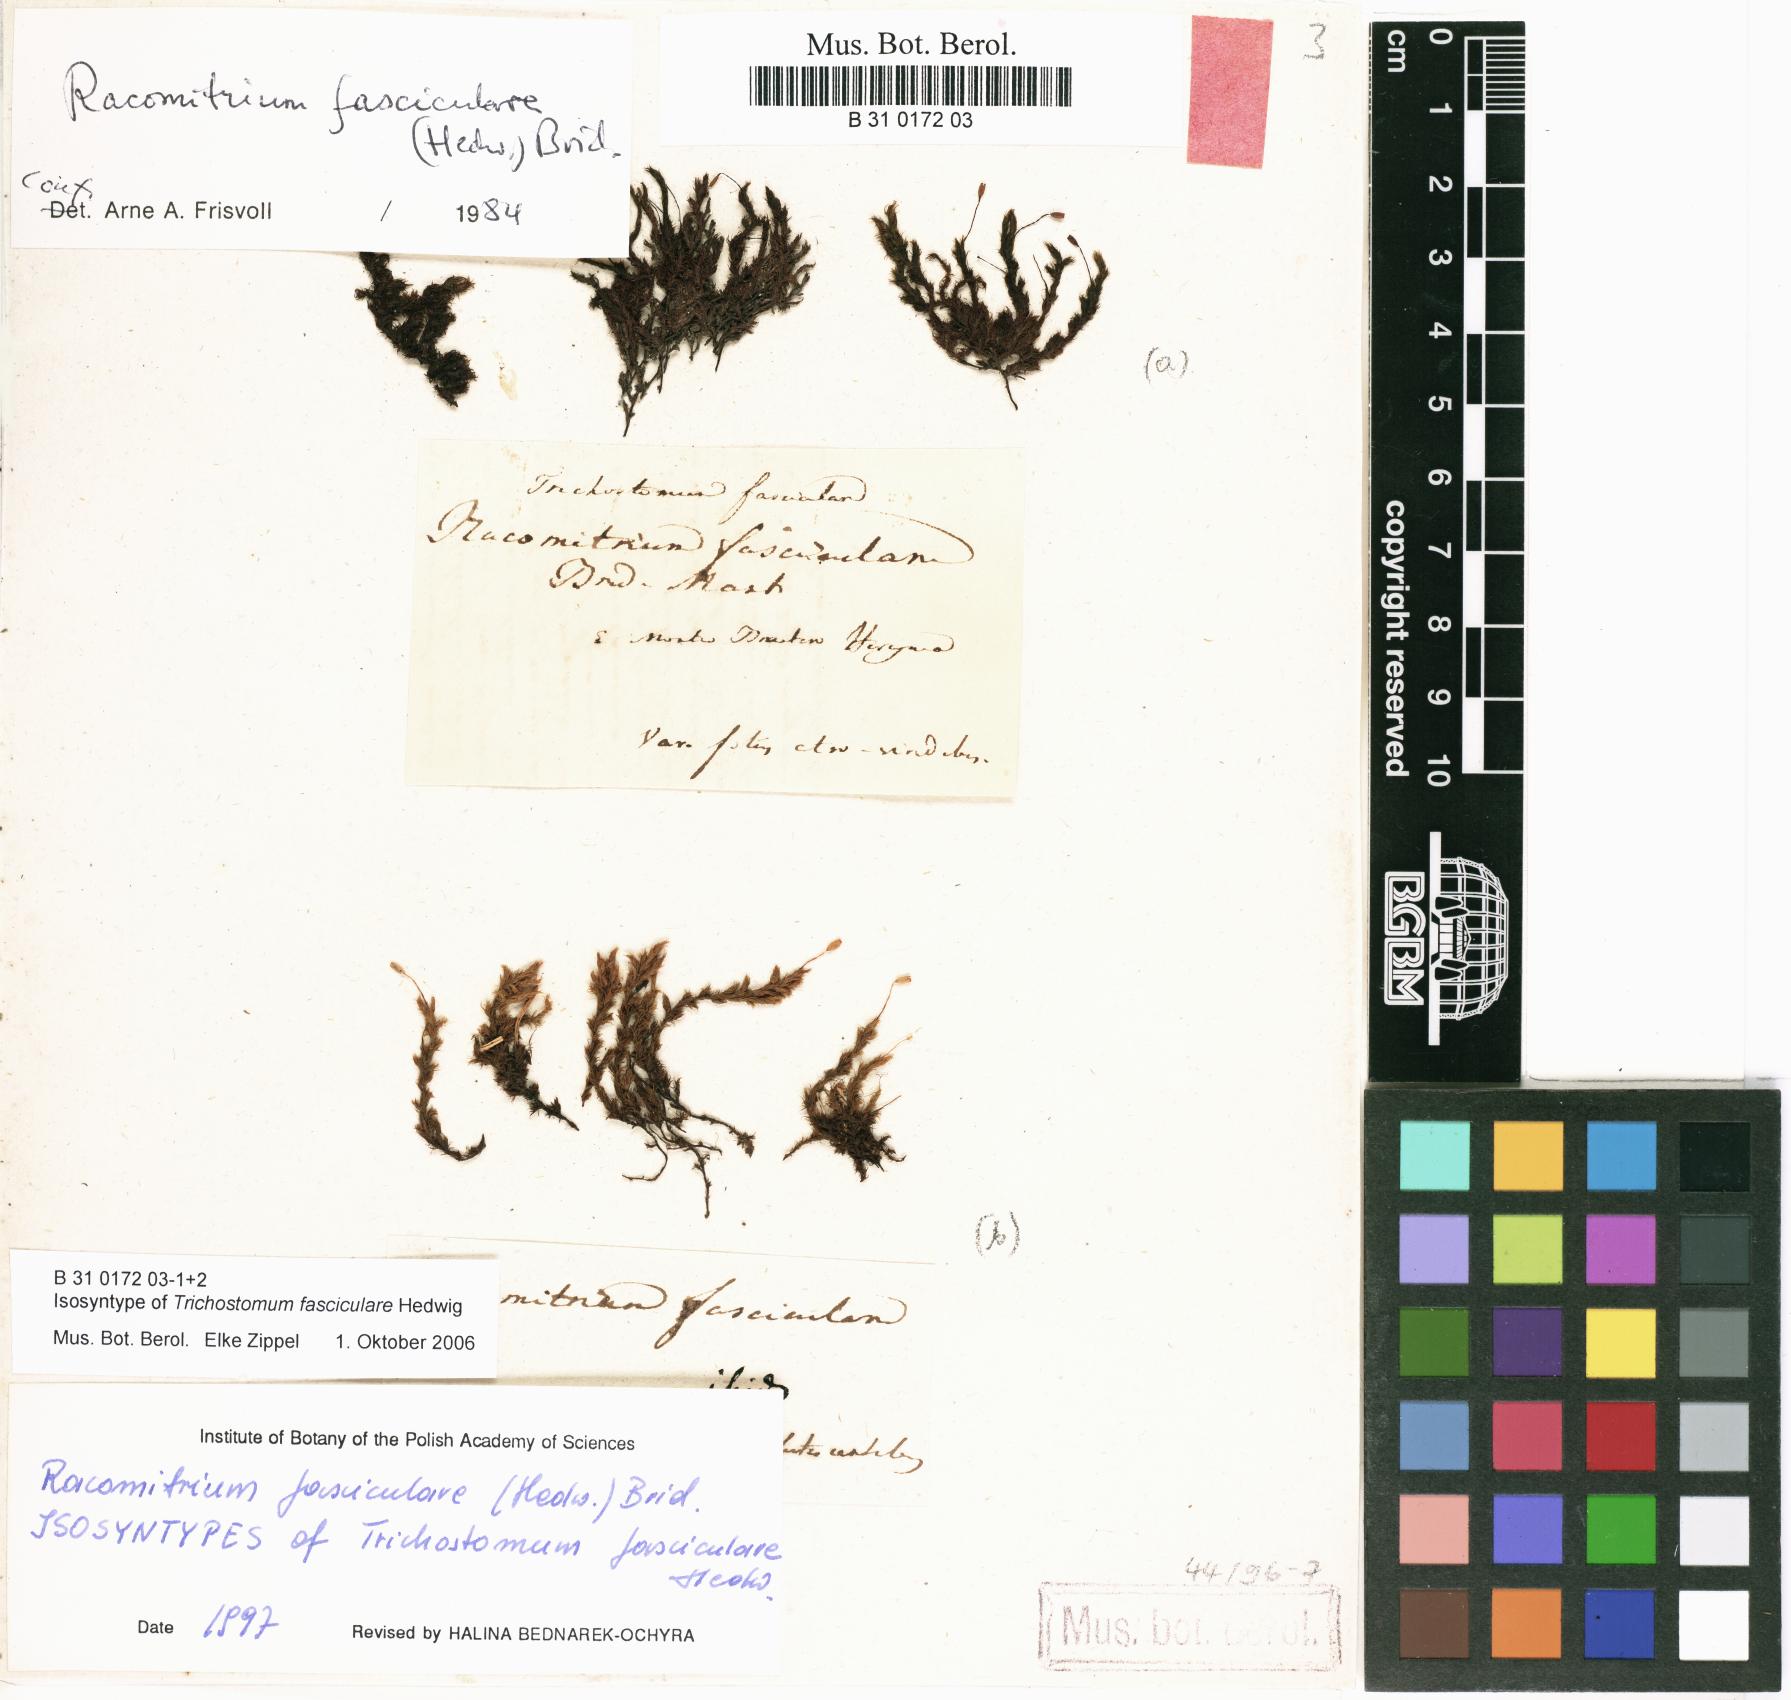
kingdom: Plantae
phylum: Bryophyta
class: Bryopsida
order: Grimmiales
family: Grimmiaceae
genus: Dilutineuron
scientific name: Dilutineuron fasciculare
